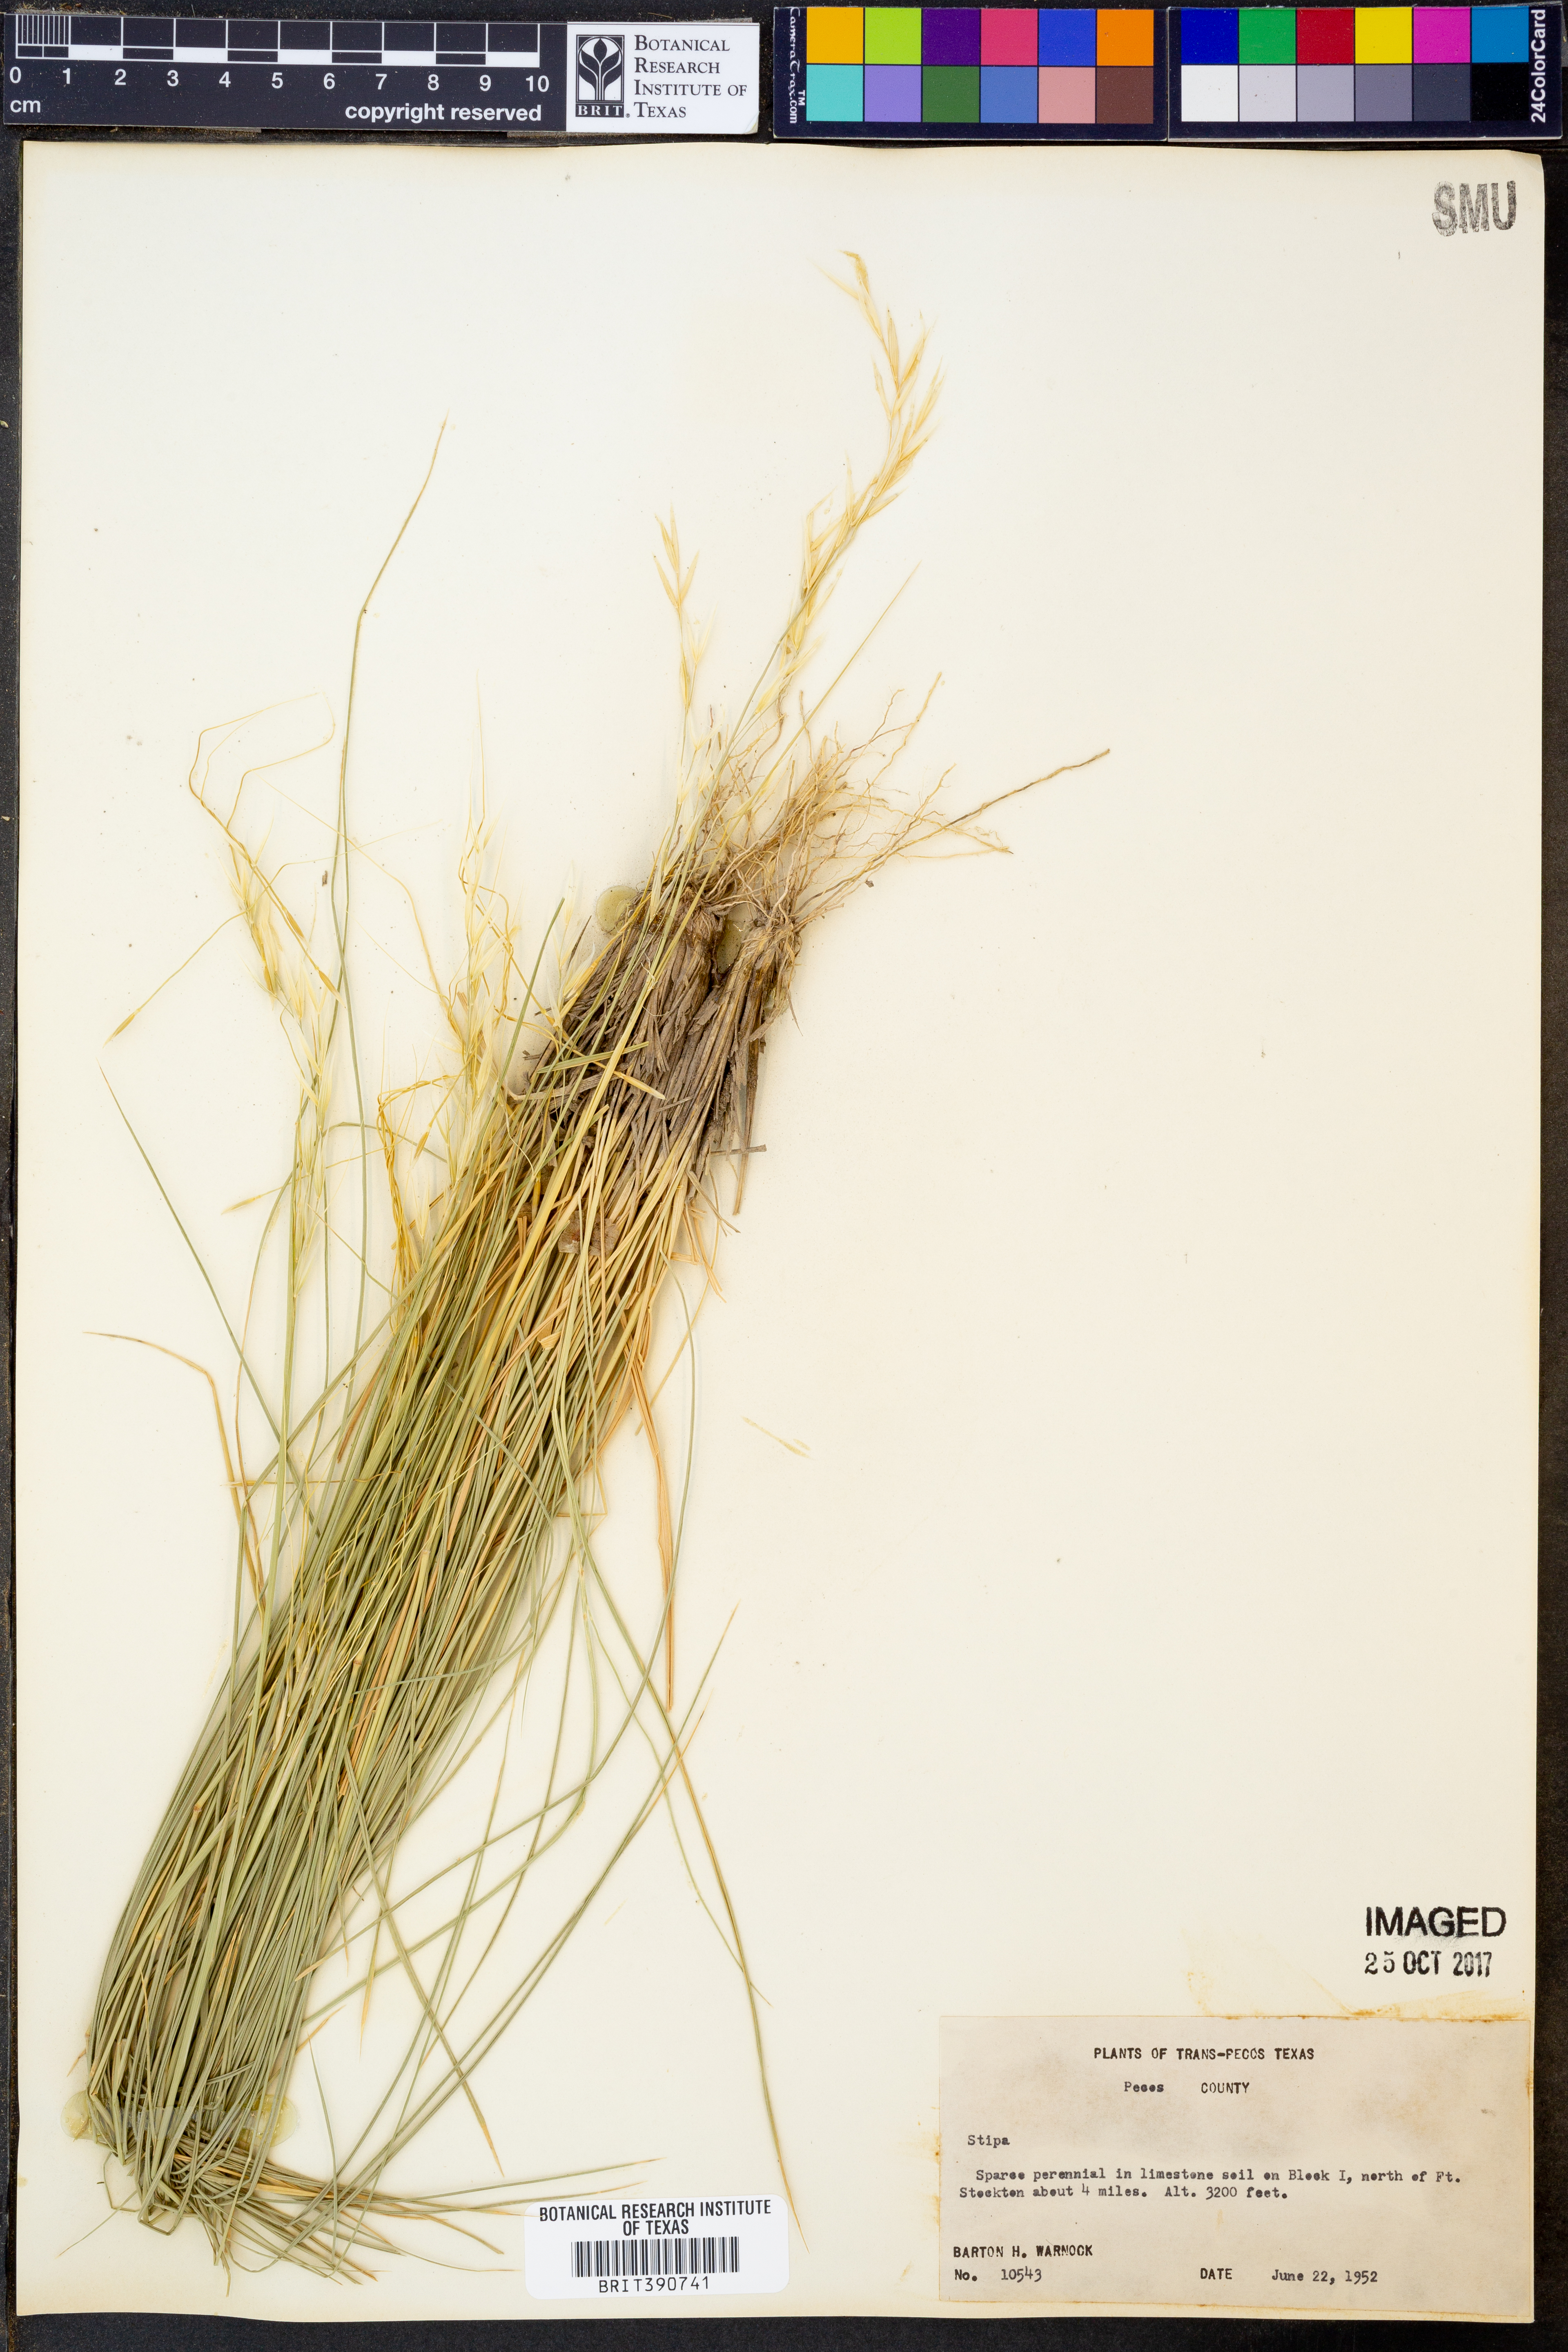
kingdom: Plantae
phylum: Tracheophyta
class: Liliopsida
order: Poales
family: Poaceae
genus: Stipa
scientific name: Stipa
